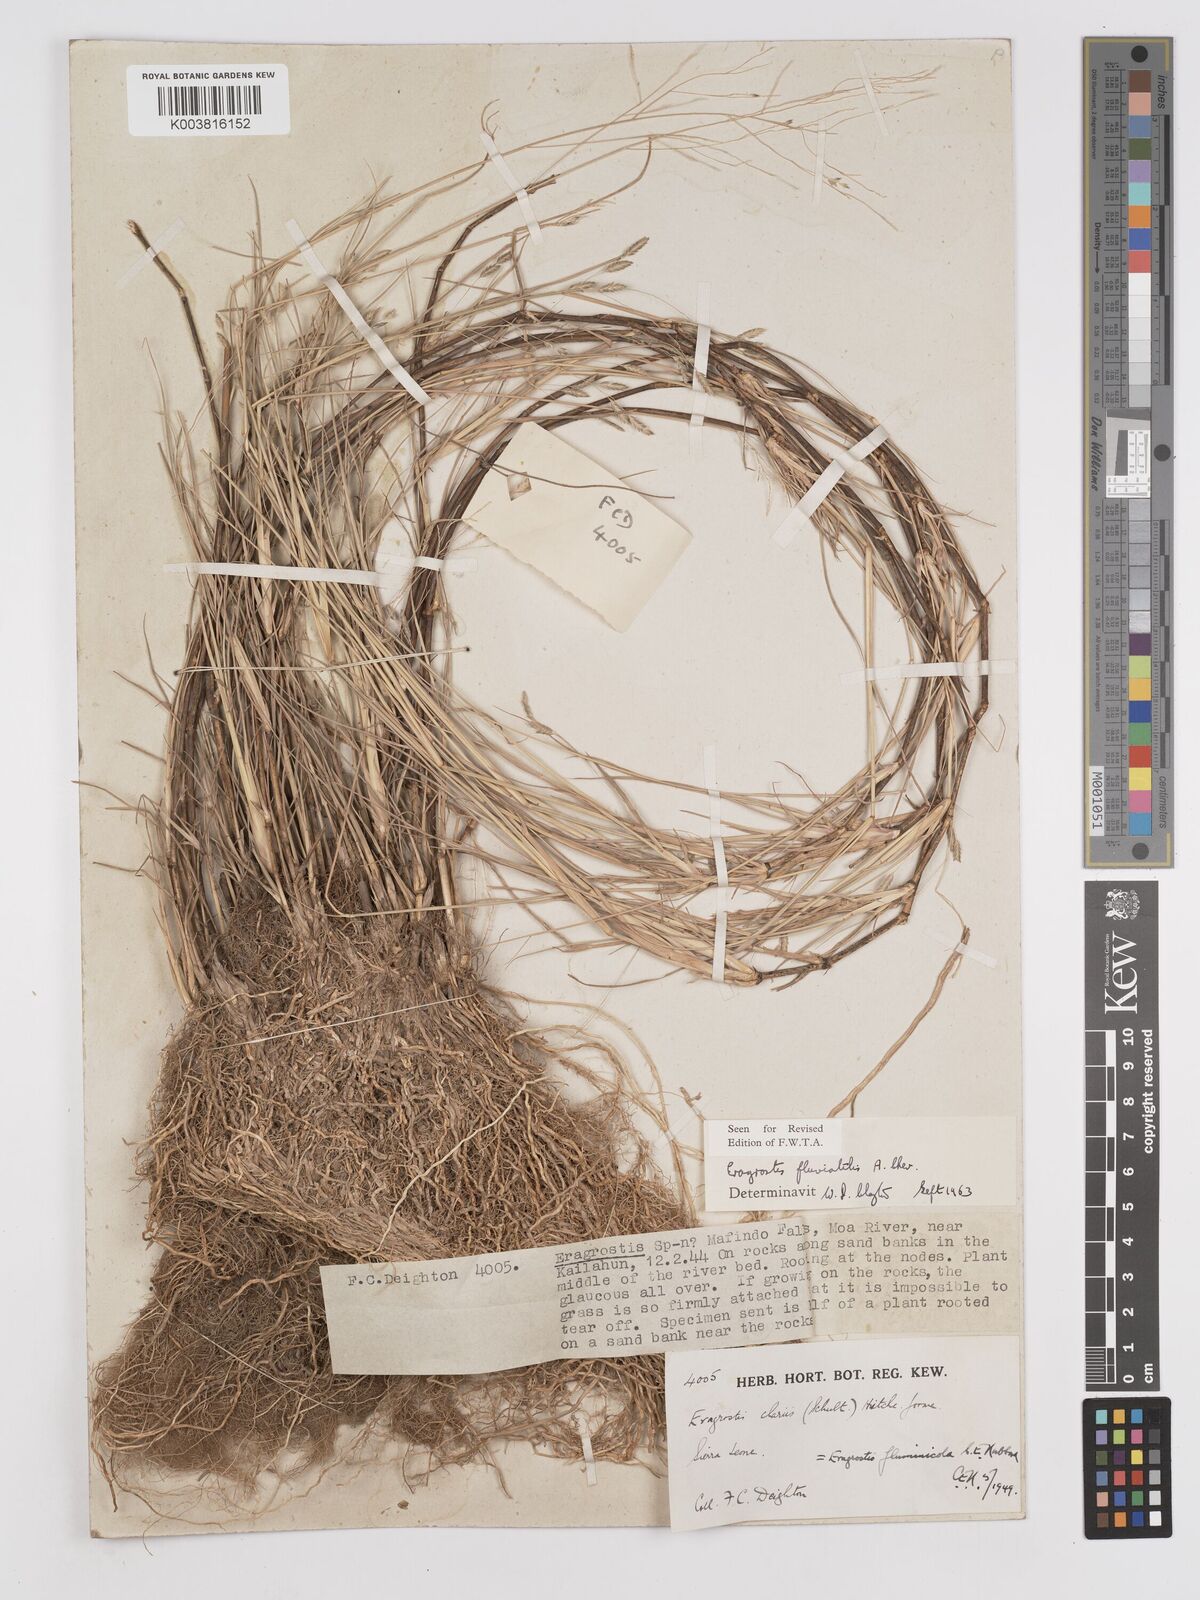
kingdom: Plantae
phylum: Tracheophyta
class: Liliopsida
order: Poales
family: Poaceae
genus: Eragrostis
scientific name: Eragrostis barteri
